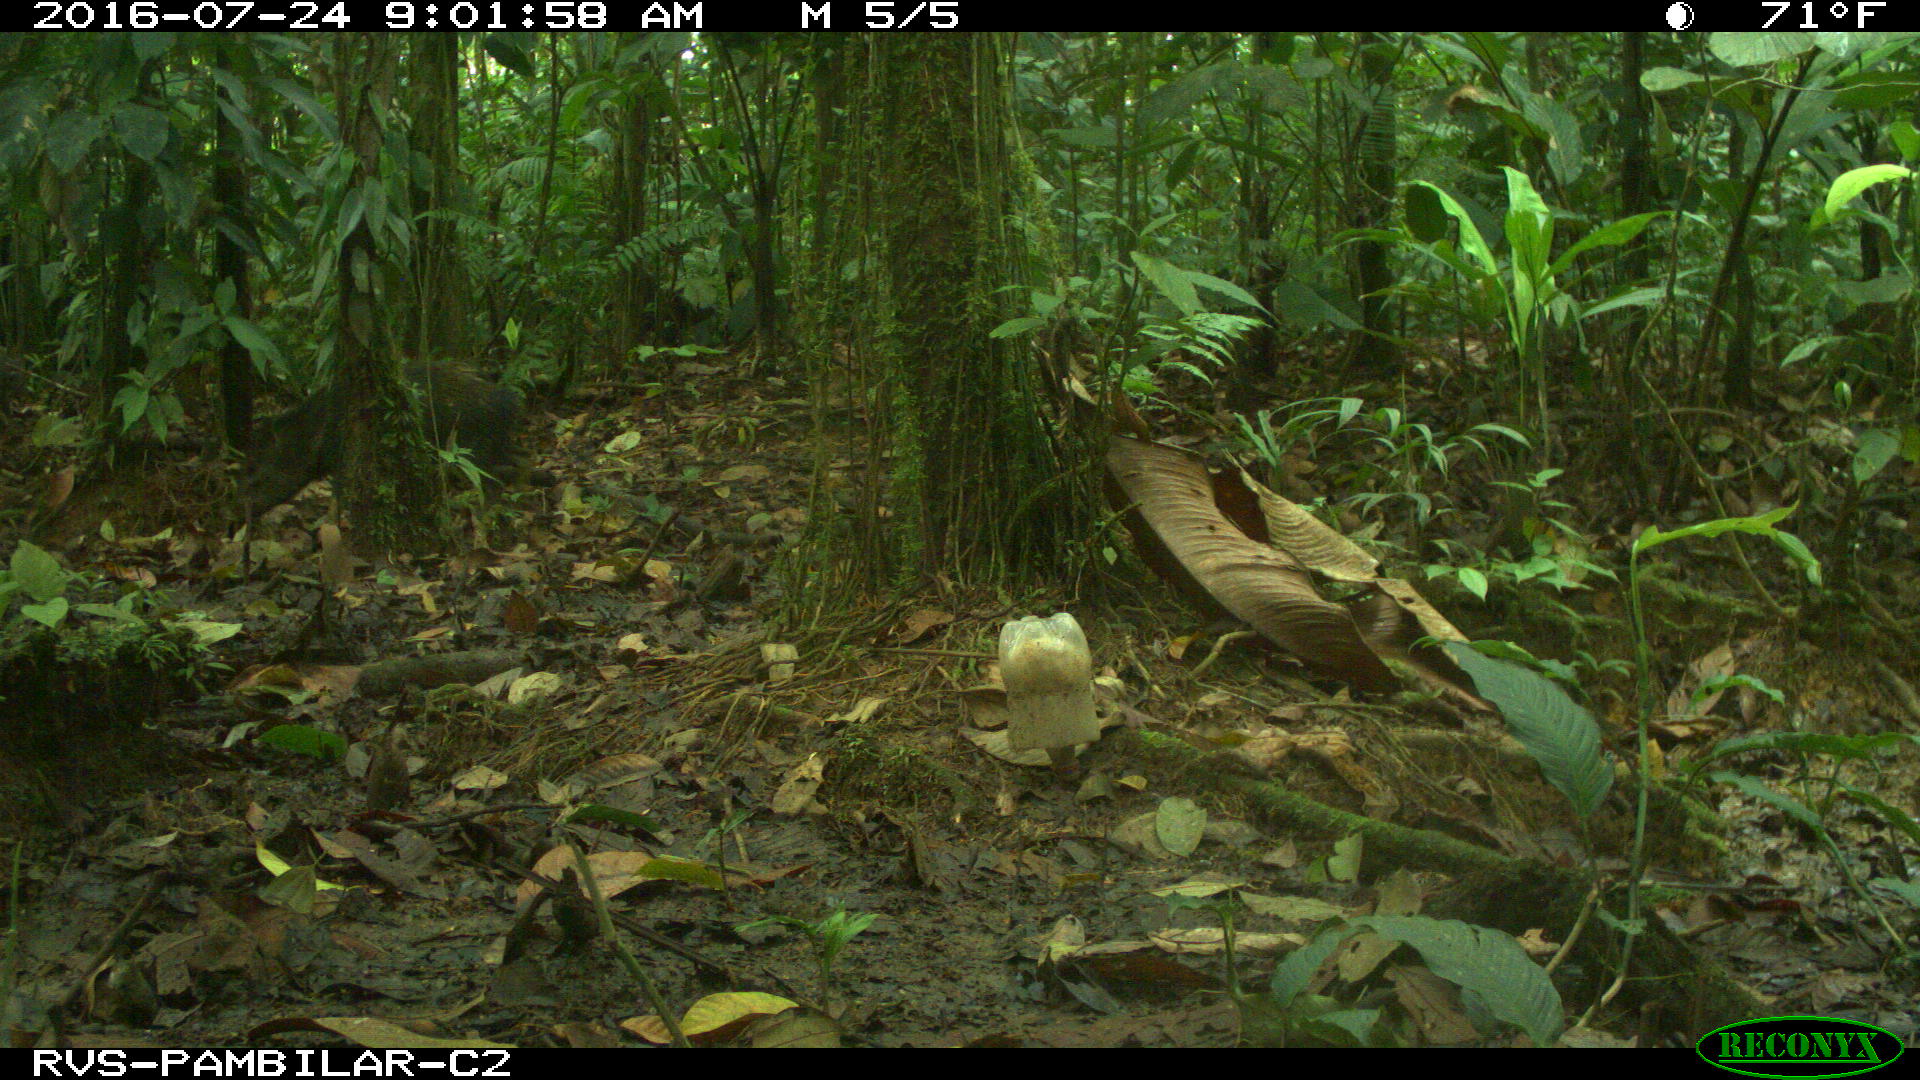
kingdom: Animalia
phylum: Chordata
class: Mammalia
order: Artiodactyla
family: Tayassuidae
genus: Pecari
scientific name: Pecari tajacu
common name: Collared peccary
